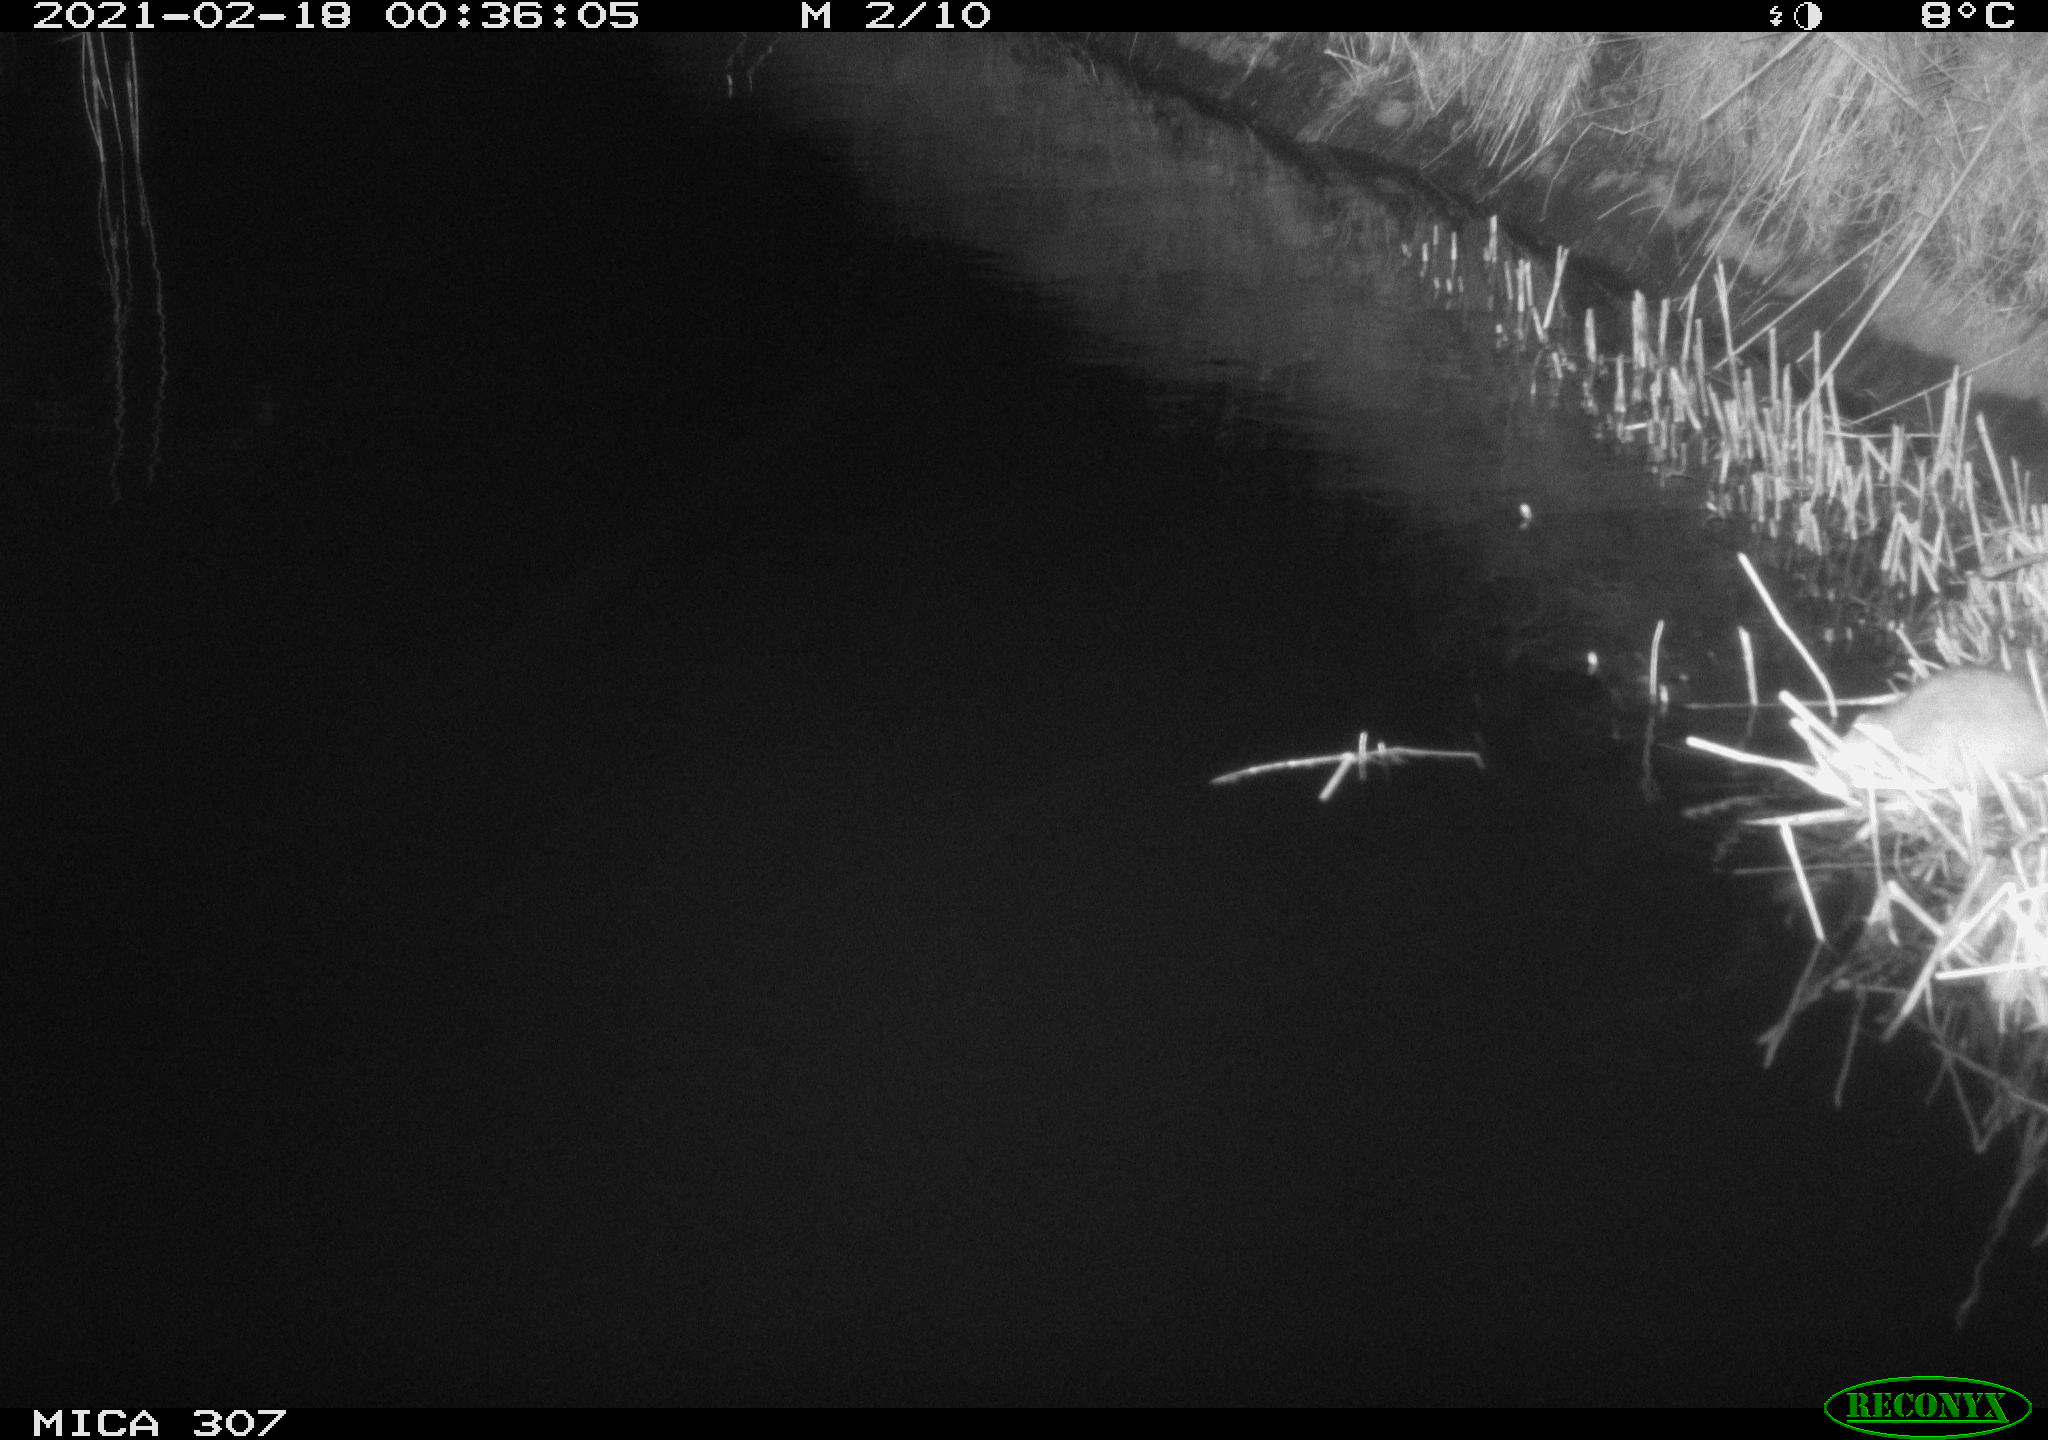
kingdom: Animalia
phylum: Chordata
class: Mammalia
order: Rodentia
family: Muridae
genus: Rattus
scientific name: Rattus norvegicus
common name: Brown rat
